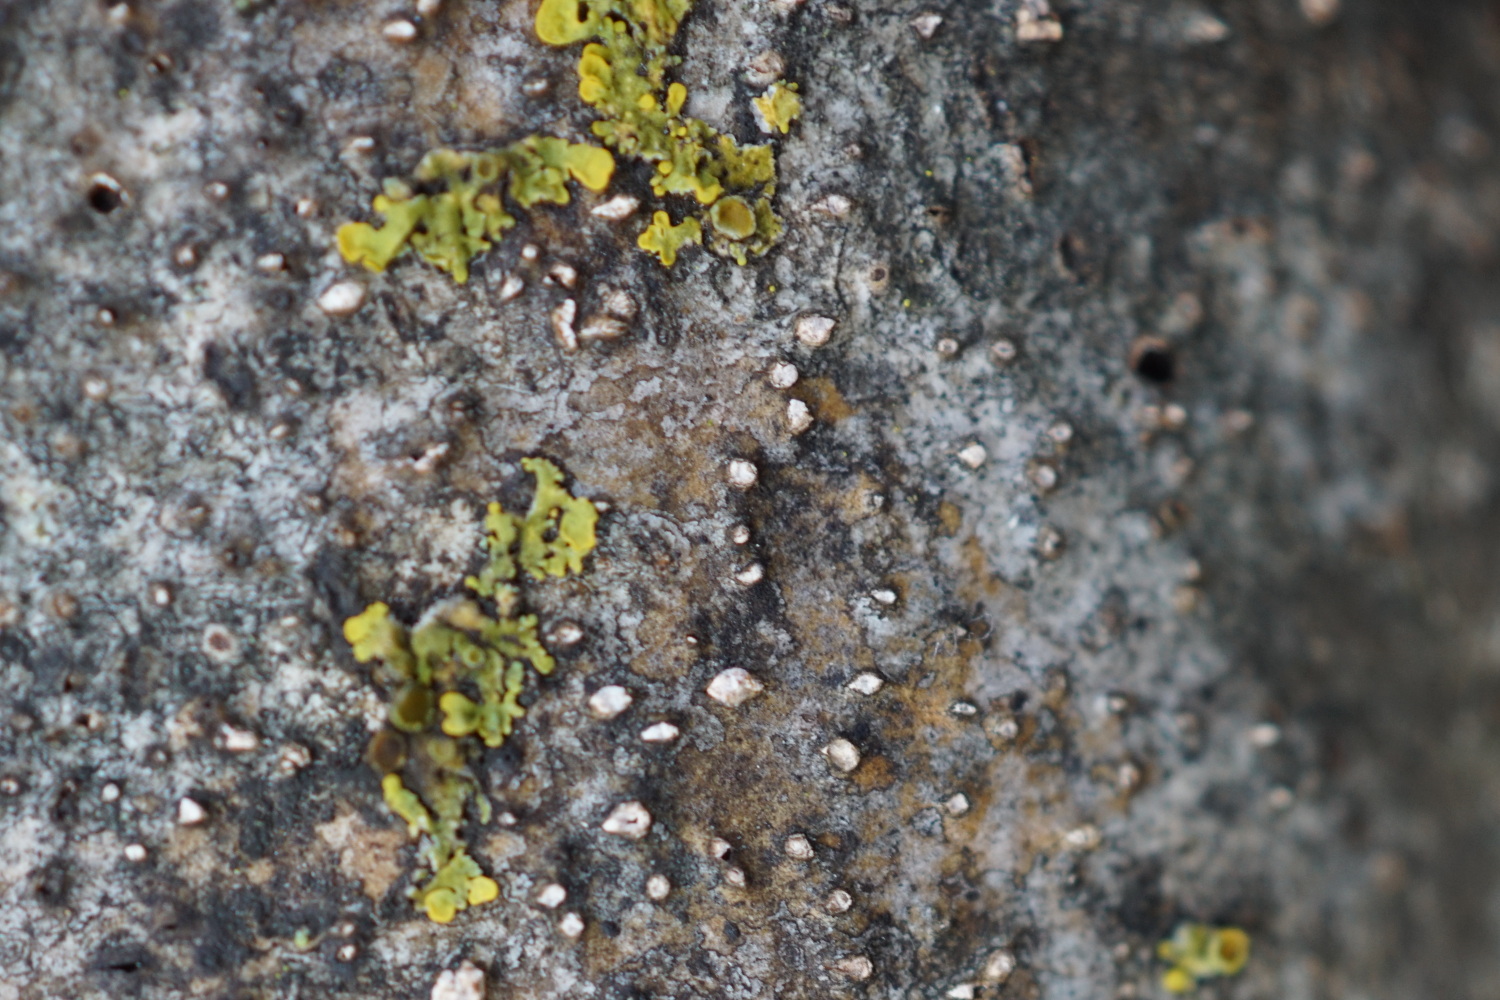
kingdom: Fungi
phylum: Ascomycota
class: Sordariomycetes
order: Diaporthales
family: Valsaceae
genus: Cytospora
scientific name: Cytospora nivea
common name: hvidskivet kulknippe
